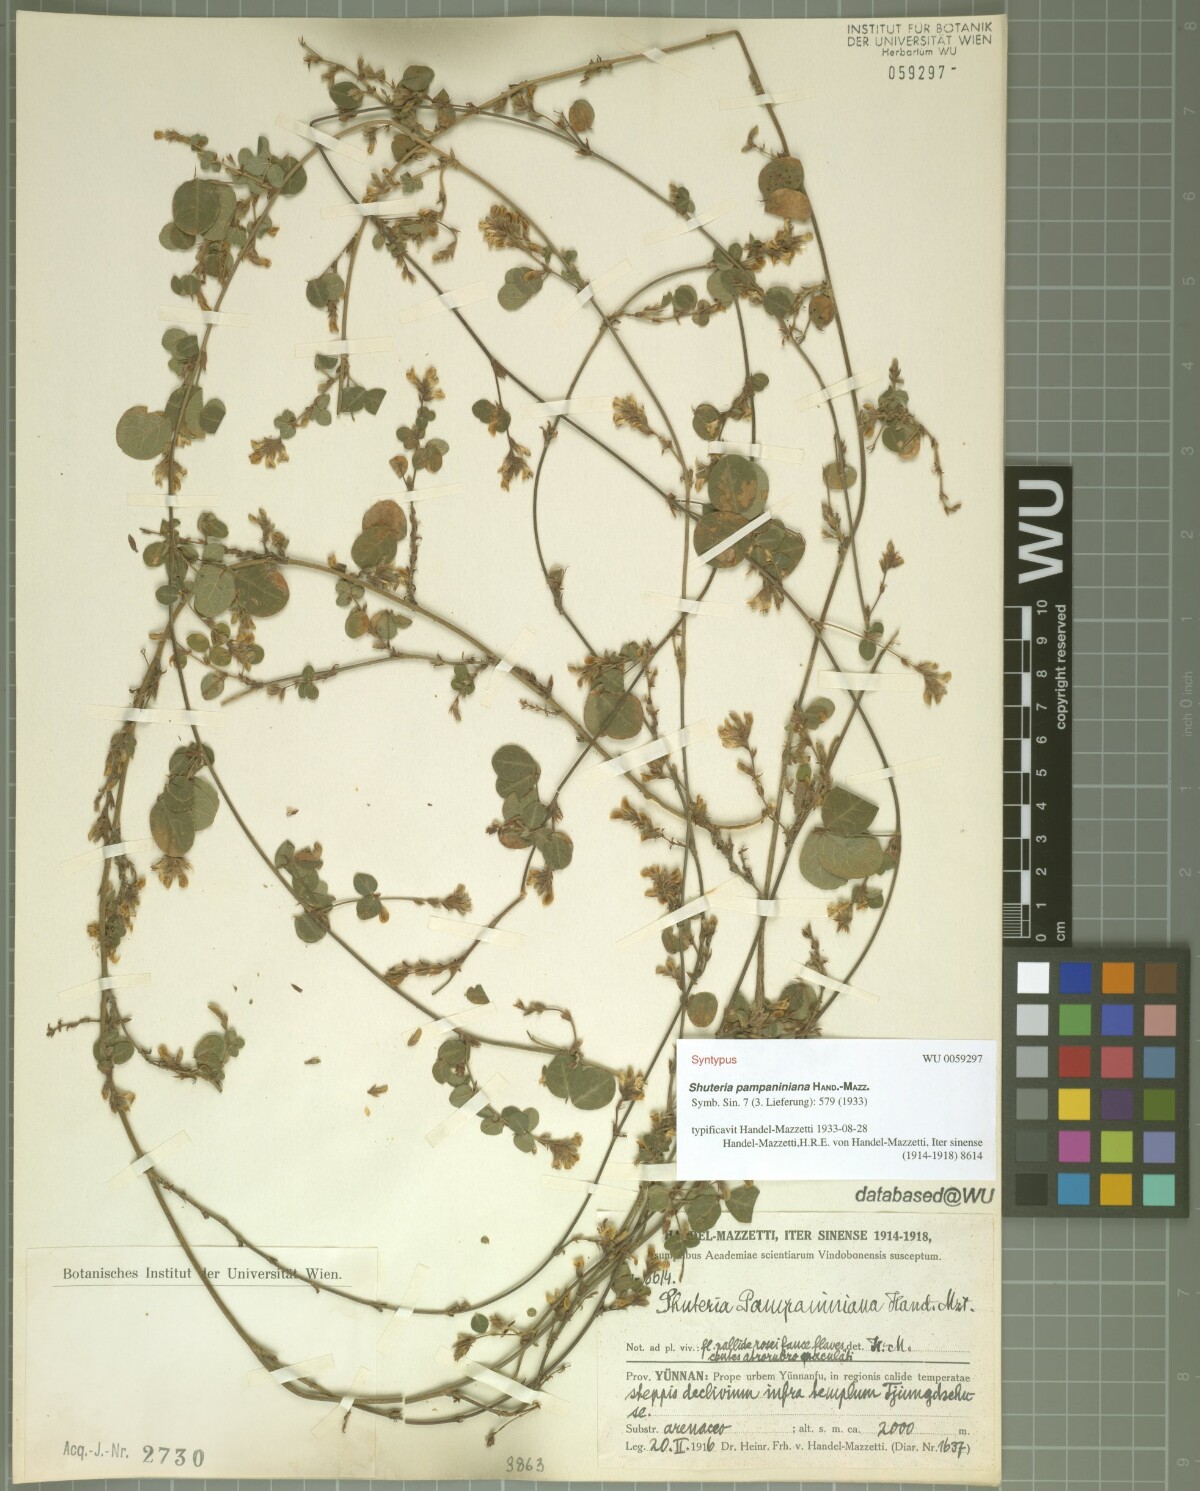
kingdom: Plantae
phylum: Tracheophyta
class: Magnoliopsida
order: Fabales
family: Fabaceae
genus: Shuteria
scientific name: Shuteria vestita
